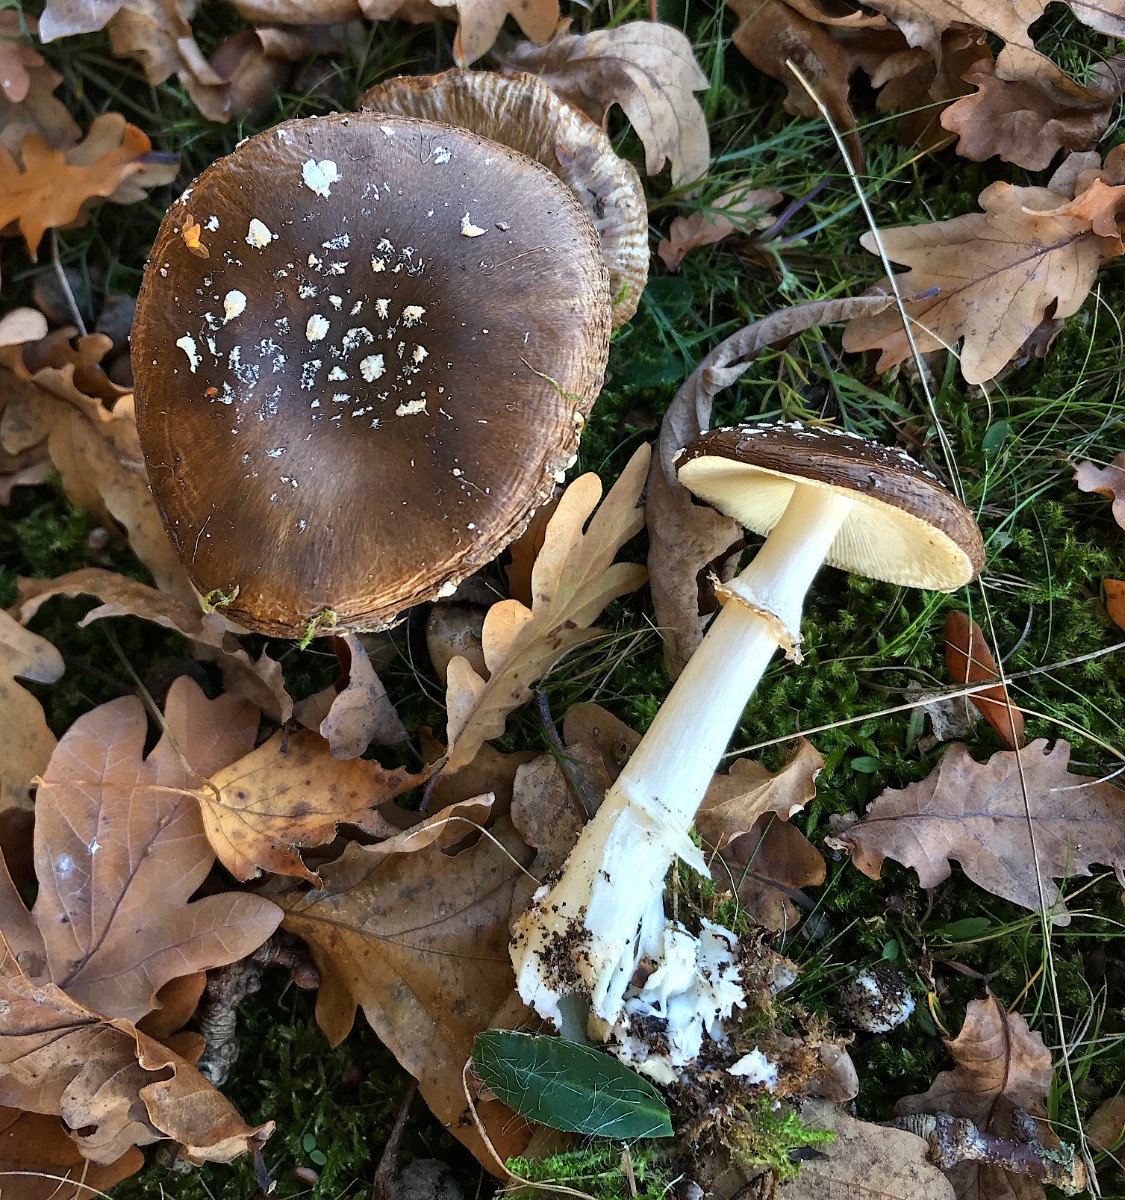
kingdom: Fungi
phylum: Basidiomycota
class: Agaricomycetes
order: Agaricales
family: Amanitaceae
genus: Amanita
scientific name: Amanita pantherina
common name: panter-fluesvamp
